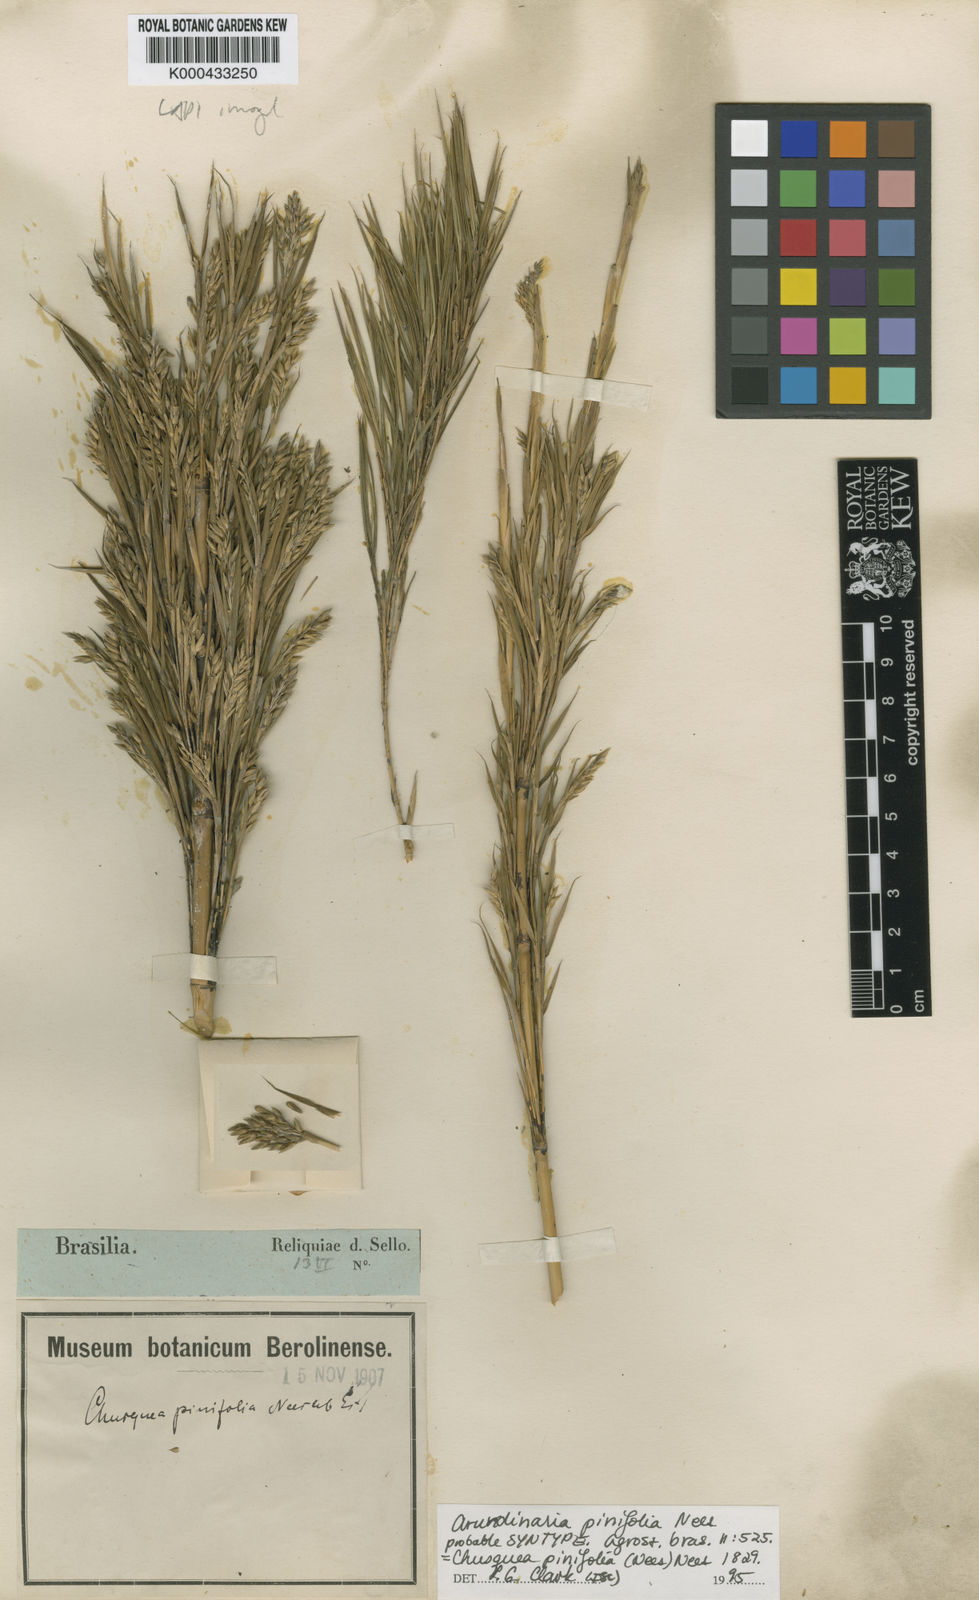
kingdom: Plantae
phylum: Tracheophyta
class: Liliopsida
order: Poales
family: Poaceae
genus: Chusquea
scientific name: Chusquea pinifolia
